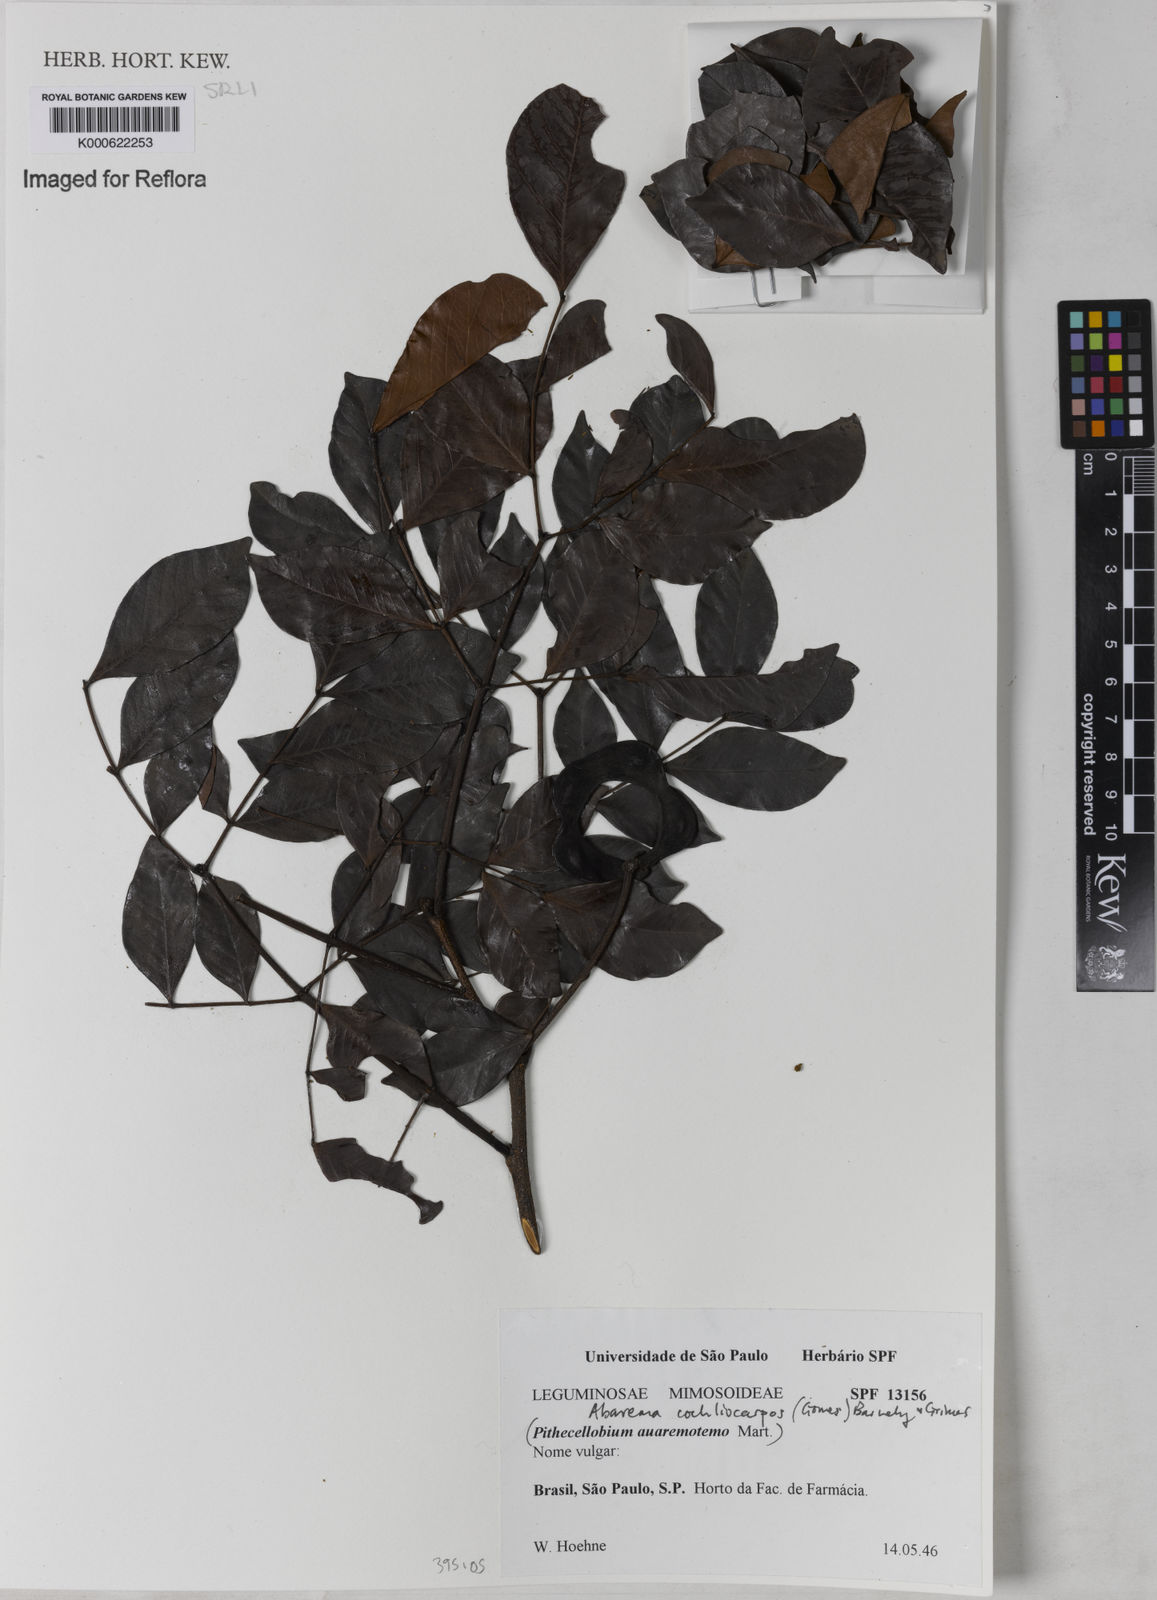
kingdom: Plantae
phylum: Tracheophyta
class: Magnoliopsida
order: Fabales
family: Fabaceae
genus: Abarema
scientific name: Abarema
